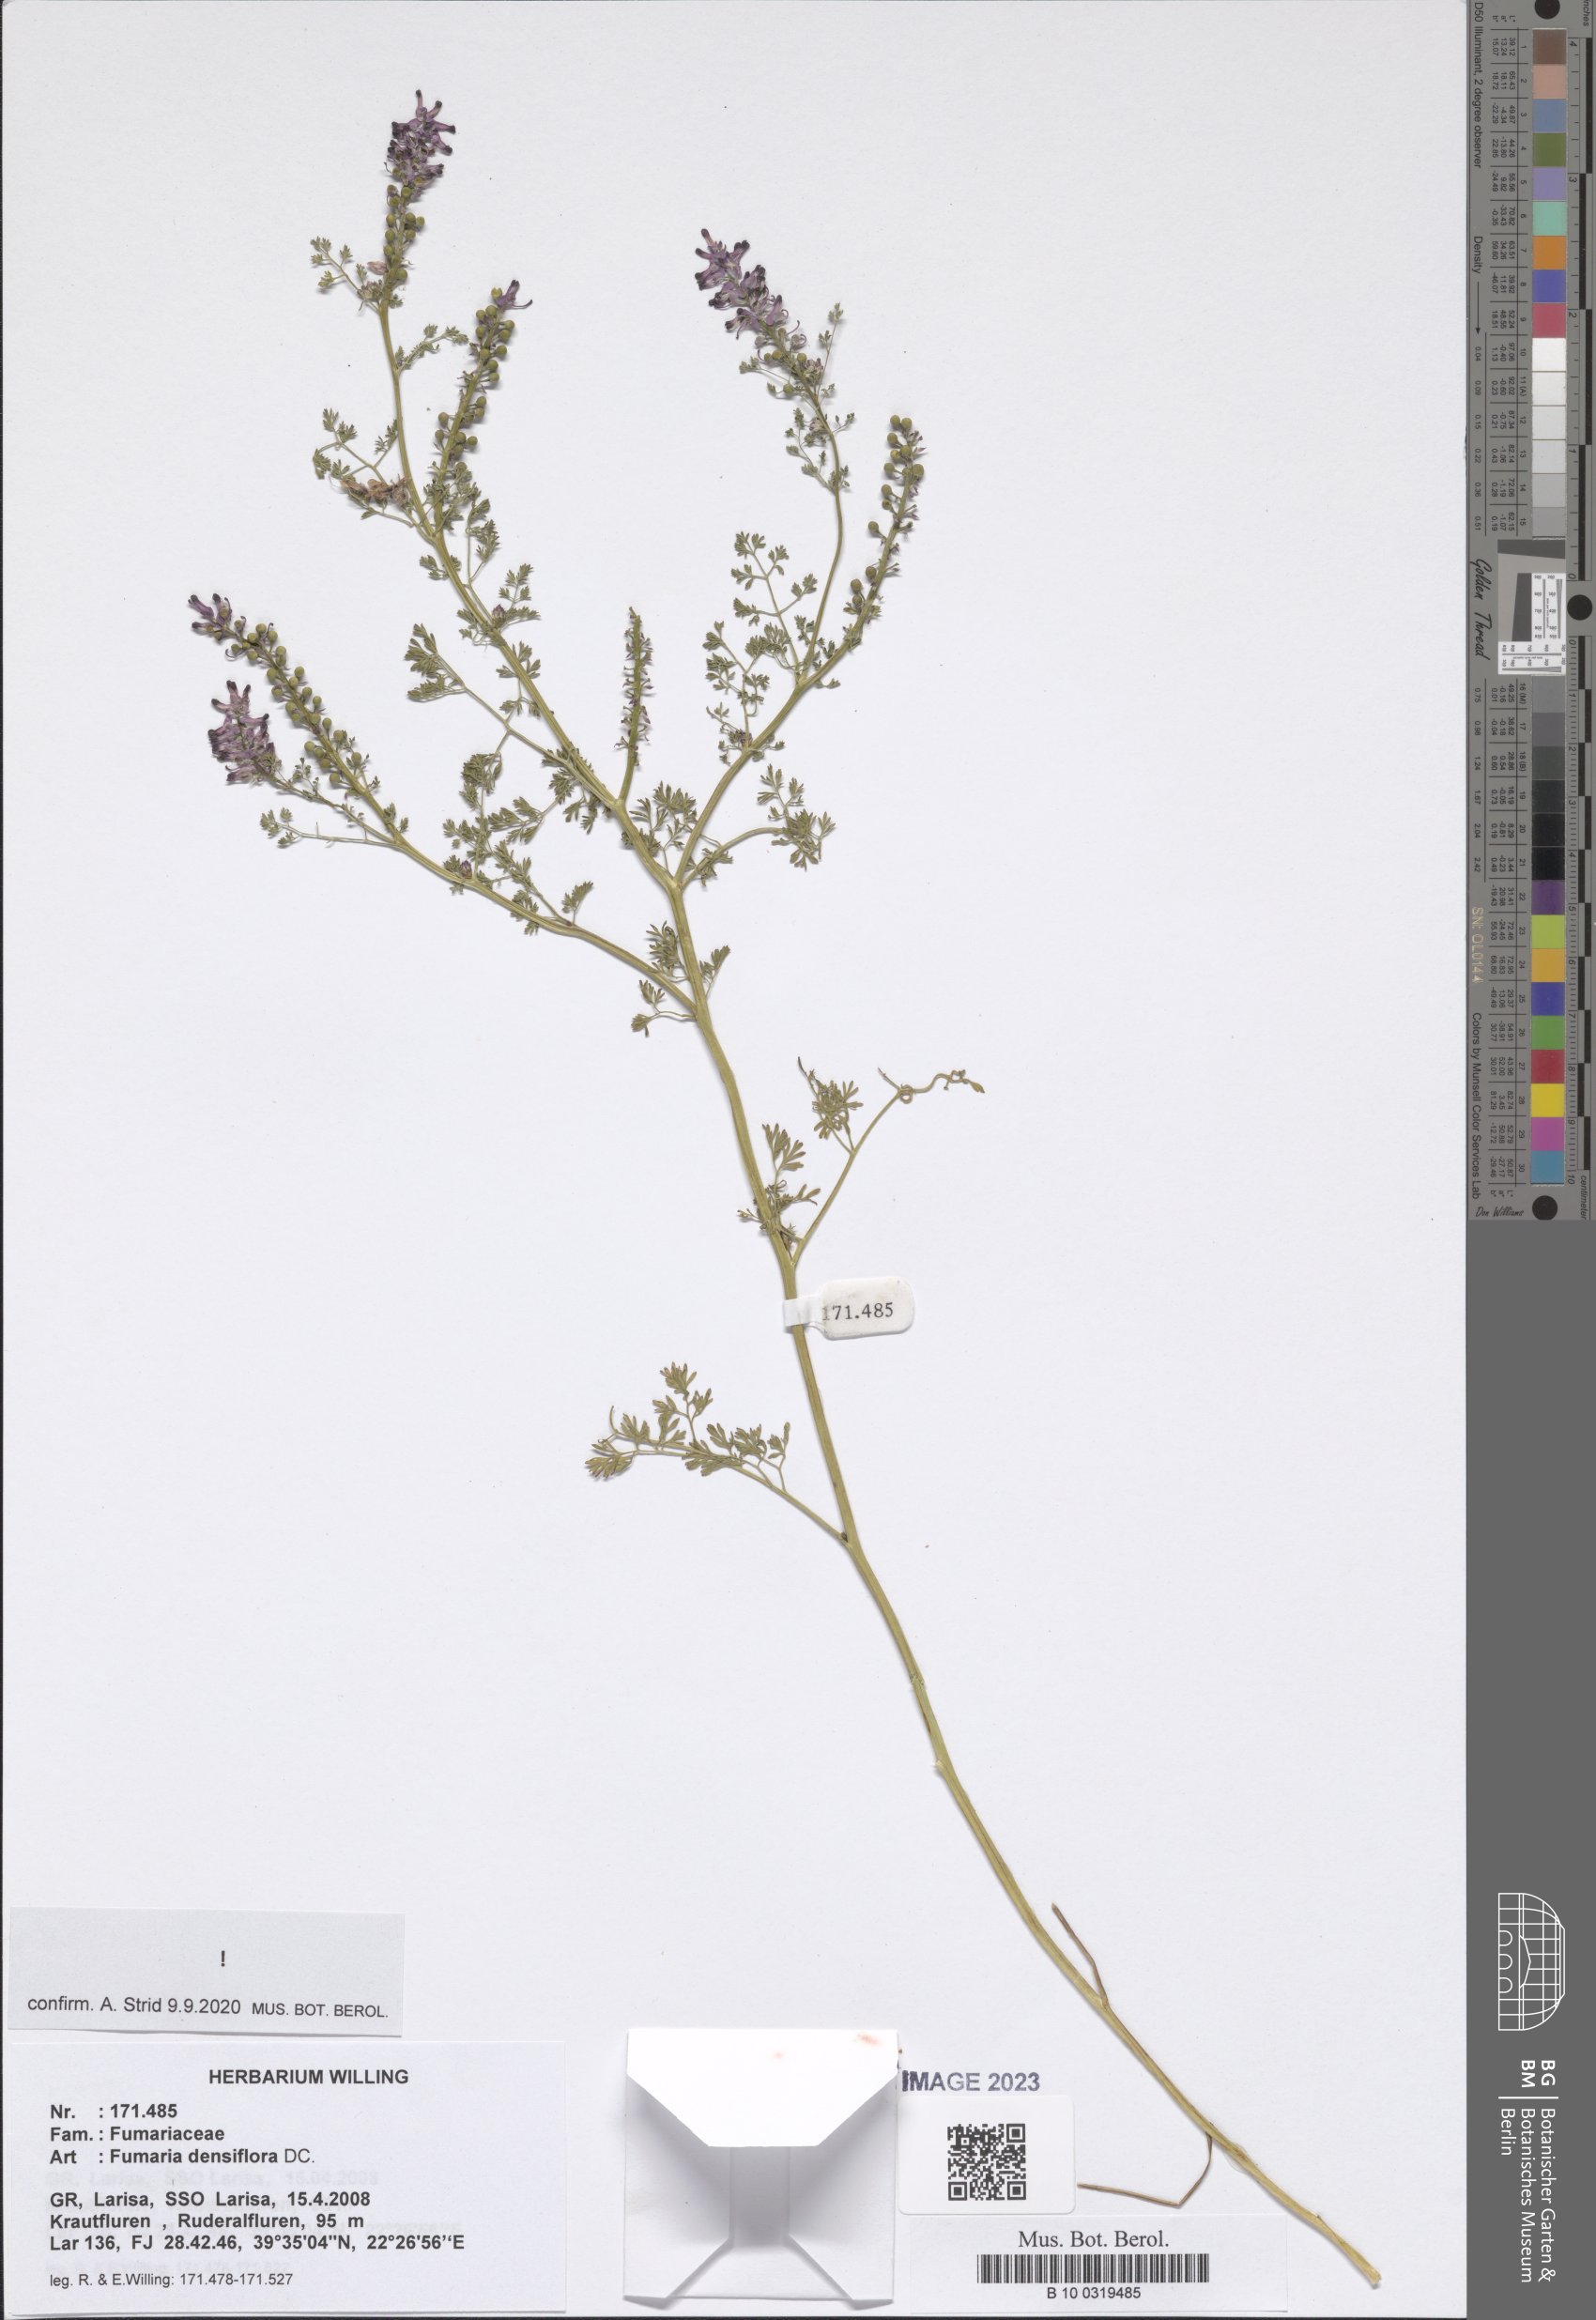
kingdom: Plantae
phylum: Tracheophyta
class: Magnoliopsida
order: Ranunculales
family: Papaveraceae
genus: Fumaria
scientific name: Fumaria densiflora
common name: Dense-flowered fumitory
